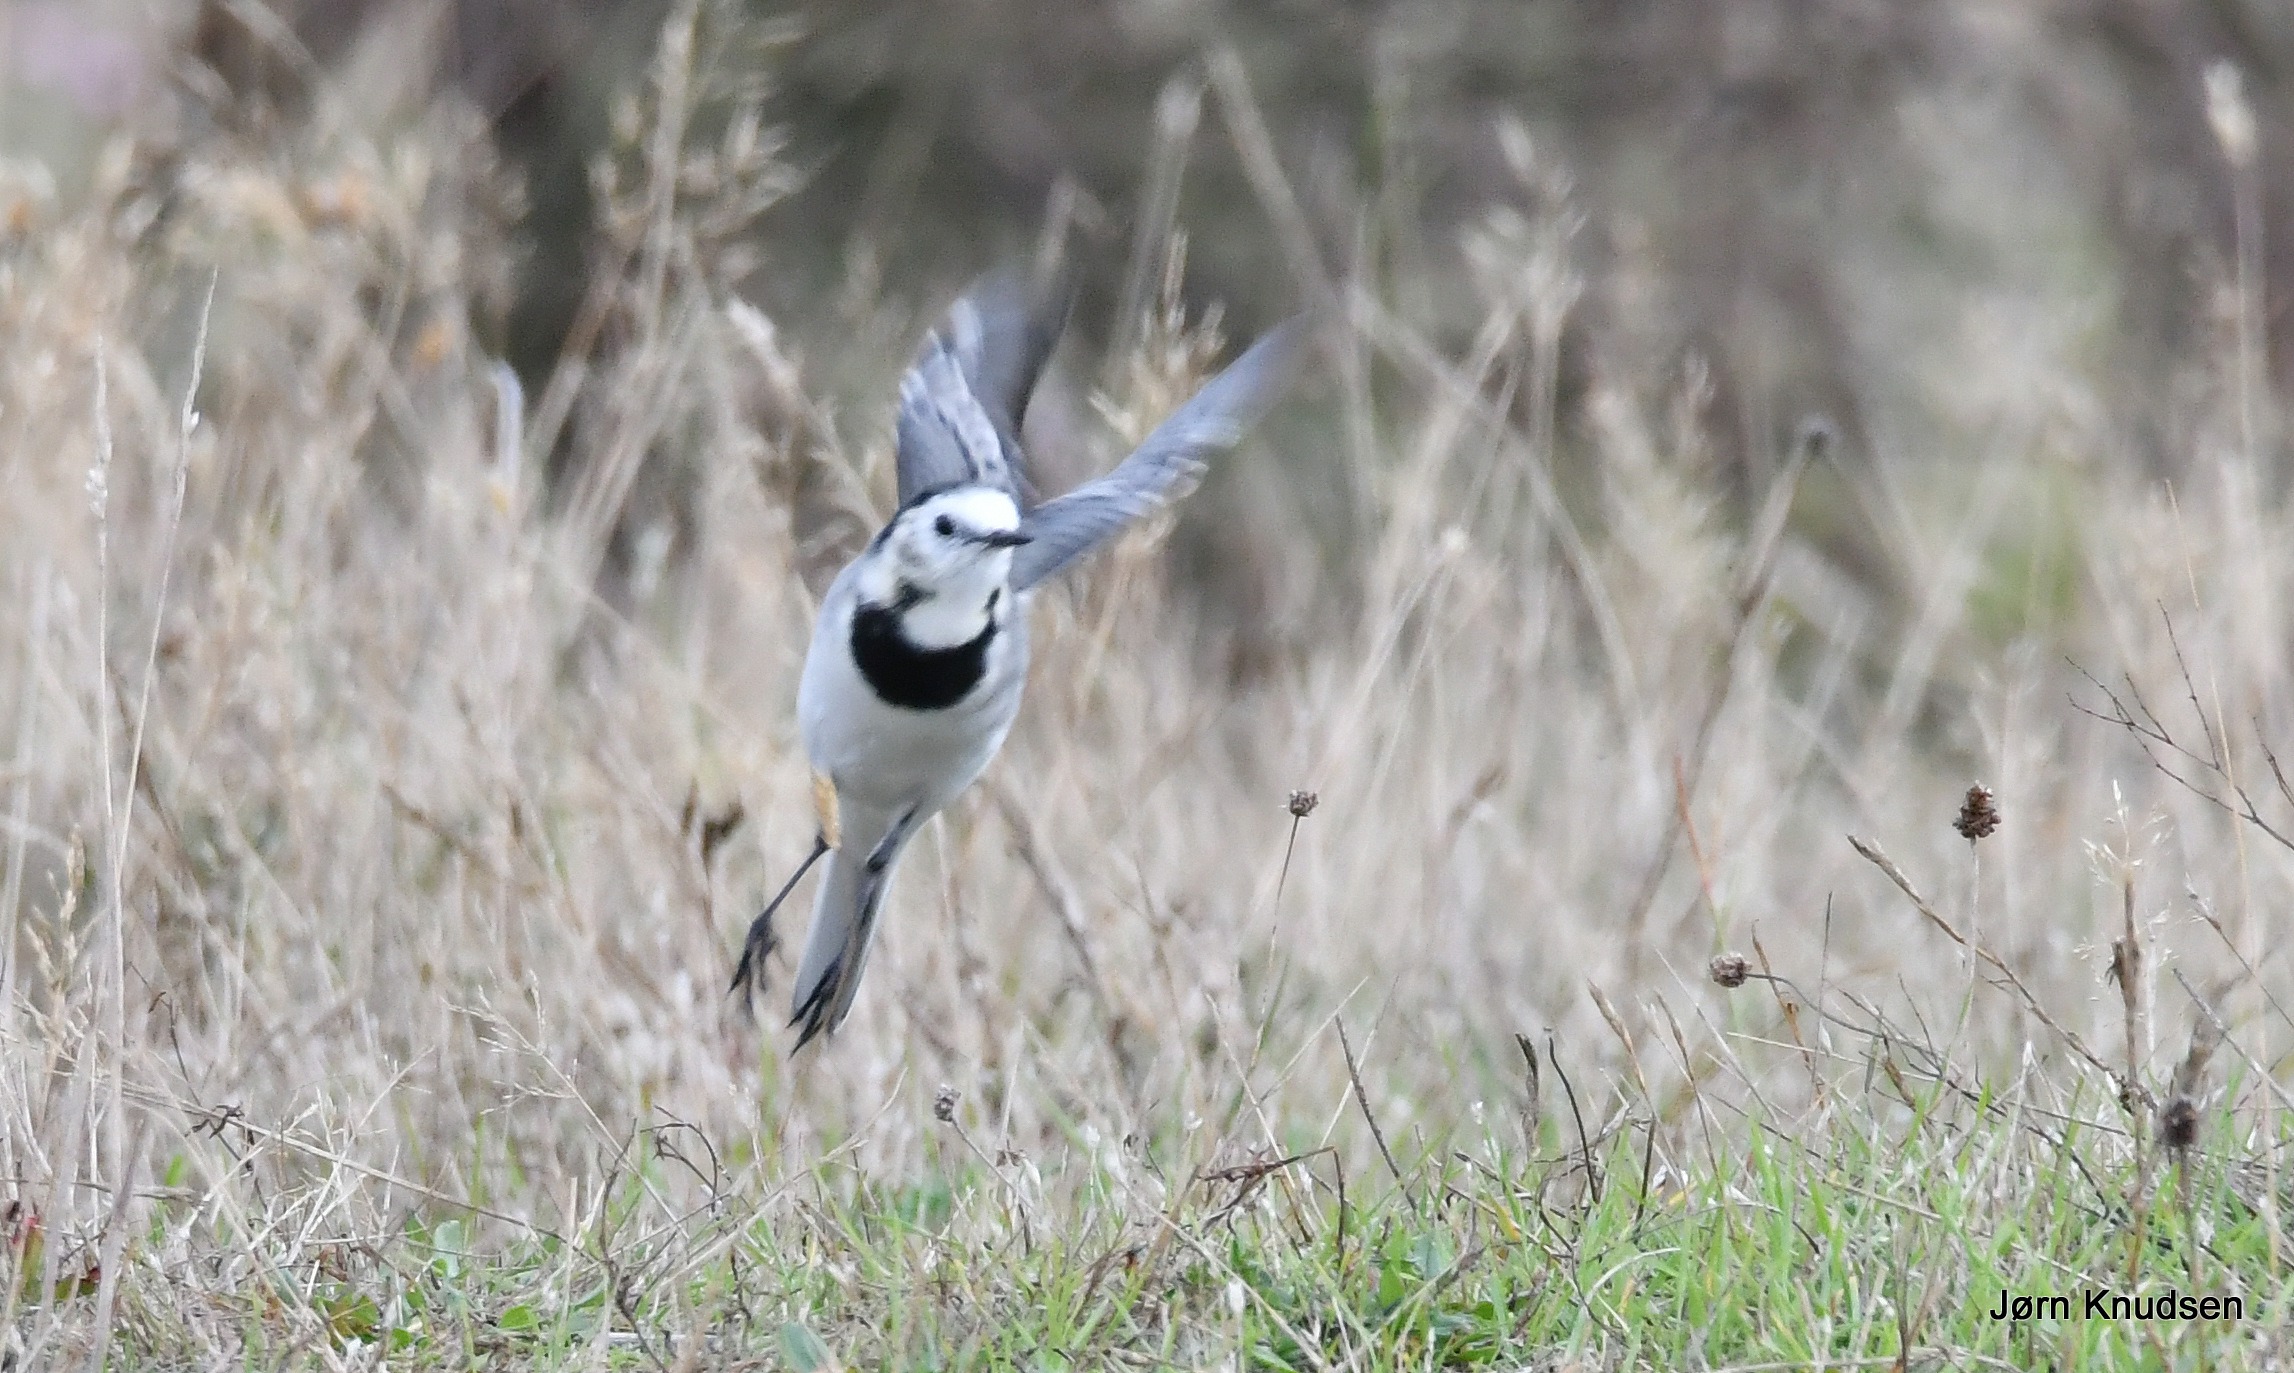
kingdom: Animalia
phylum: Chordata
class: Aves
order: Passeriformes
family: Motacillidae
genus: Motacilla
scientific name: Motacilla alba
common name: Hvid vipstjert
